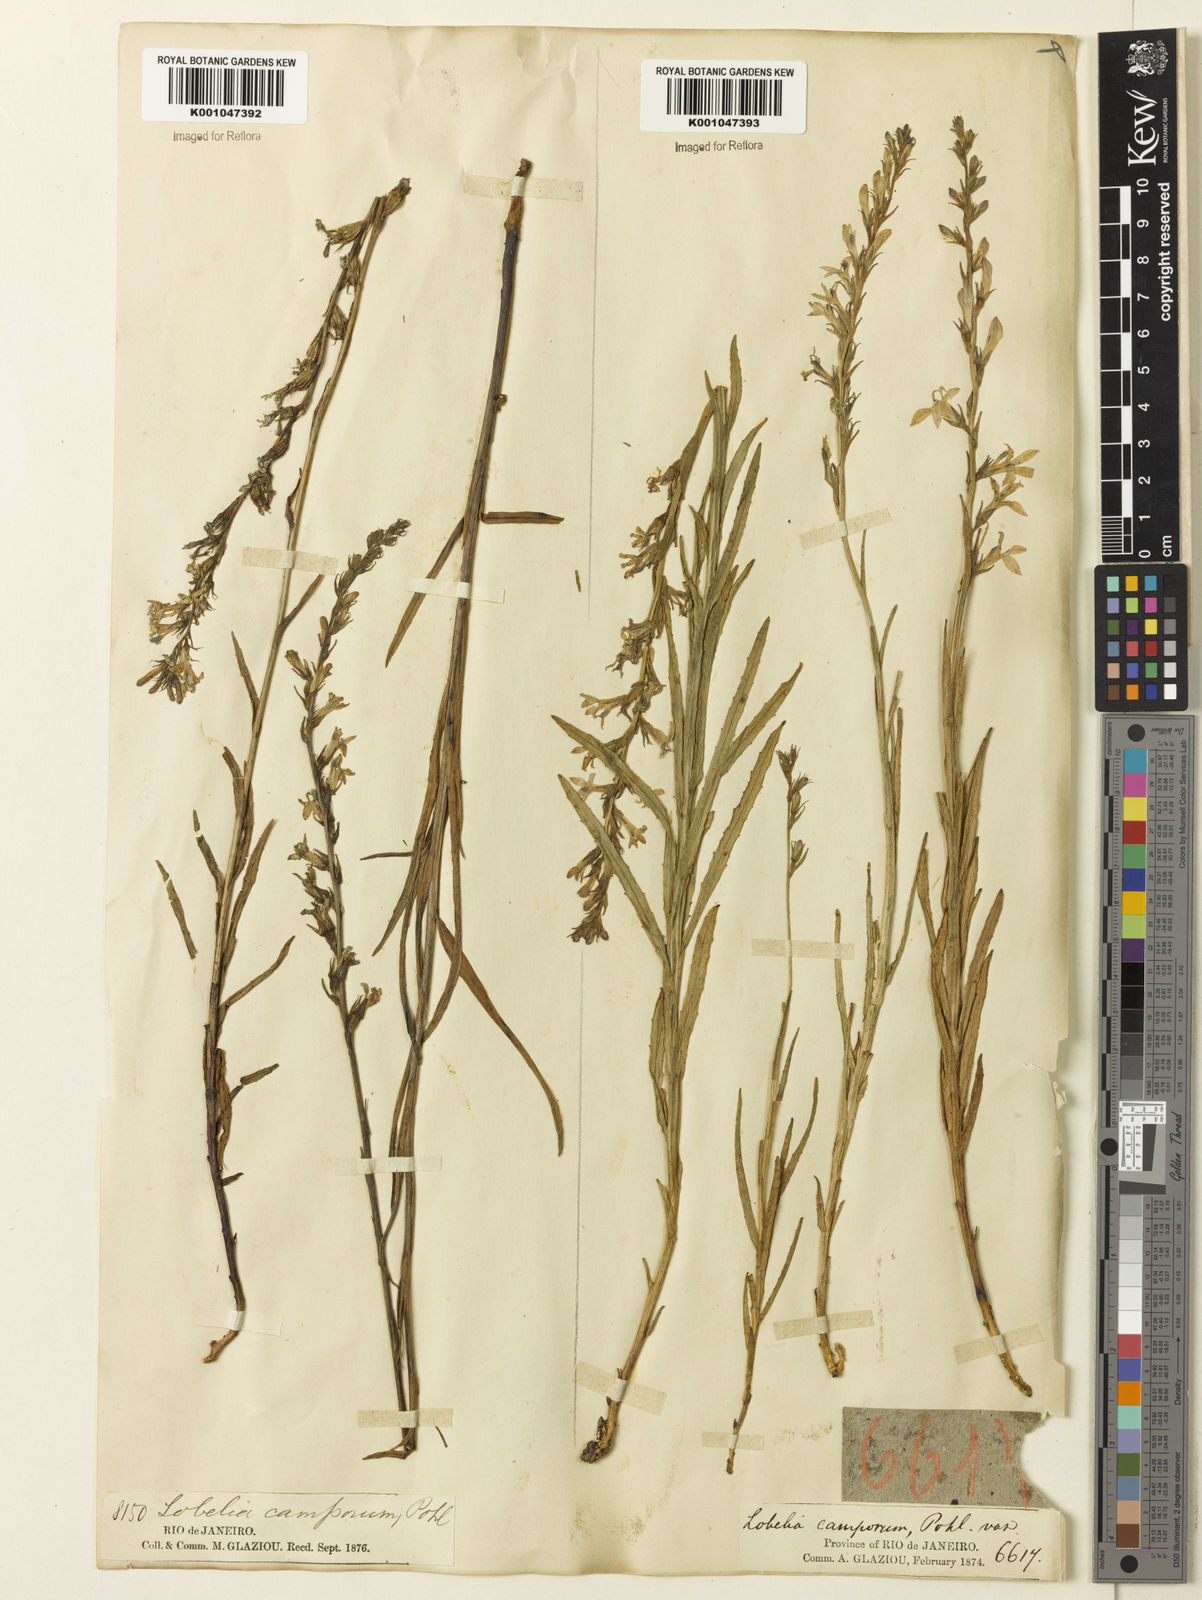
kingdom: Plantae
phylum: Tracheophyta
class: Magnoliopsida
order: Asterales
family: Campanulaceae
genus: Lobelia
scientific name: Lobelia camporum
